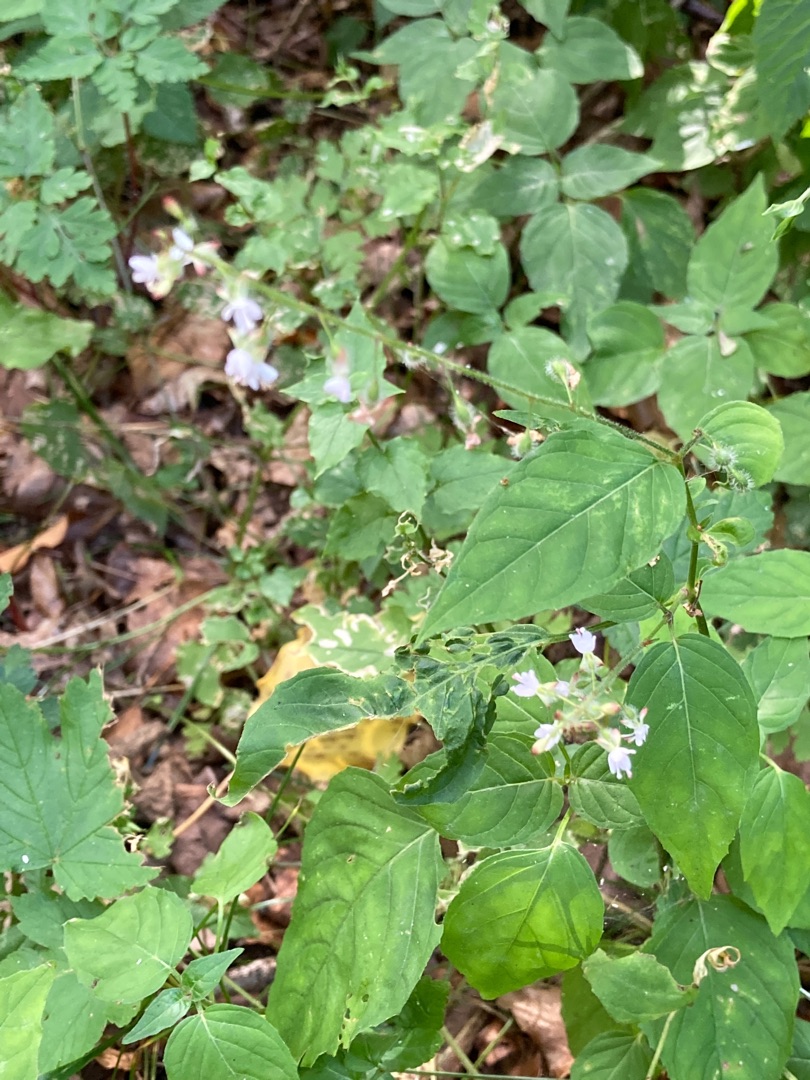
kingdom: Plantae
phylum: Tracheophyta
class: Magnoliopsida
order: Myrtales
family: Onagraceae
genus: Circaea
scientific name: Circaea lutetiana
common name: Dunet steffensurt
